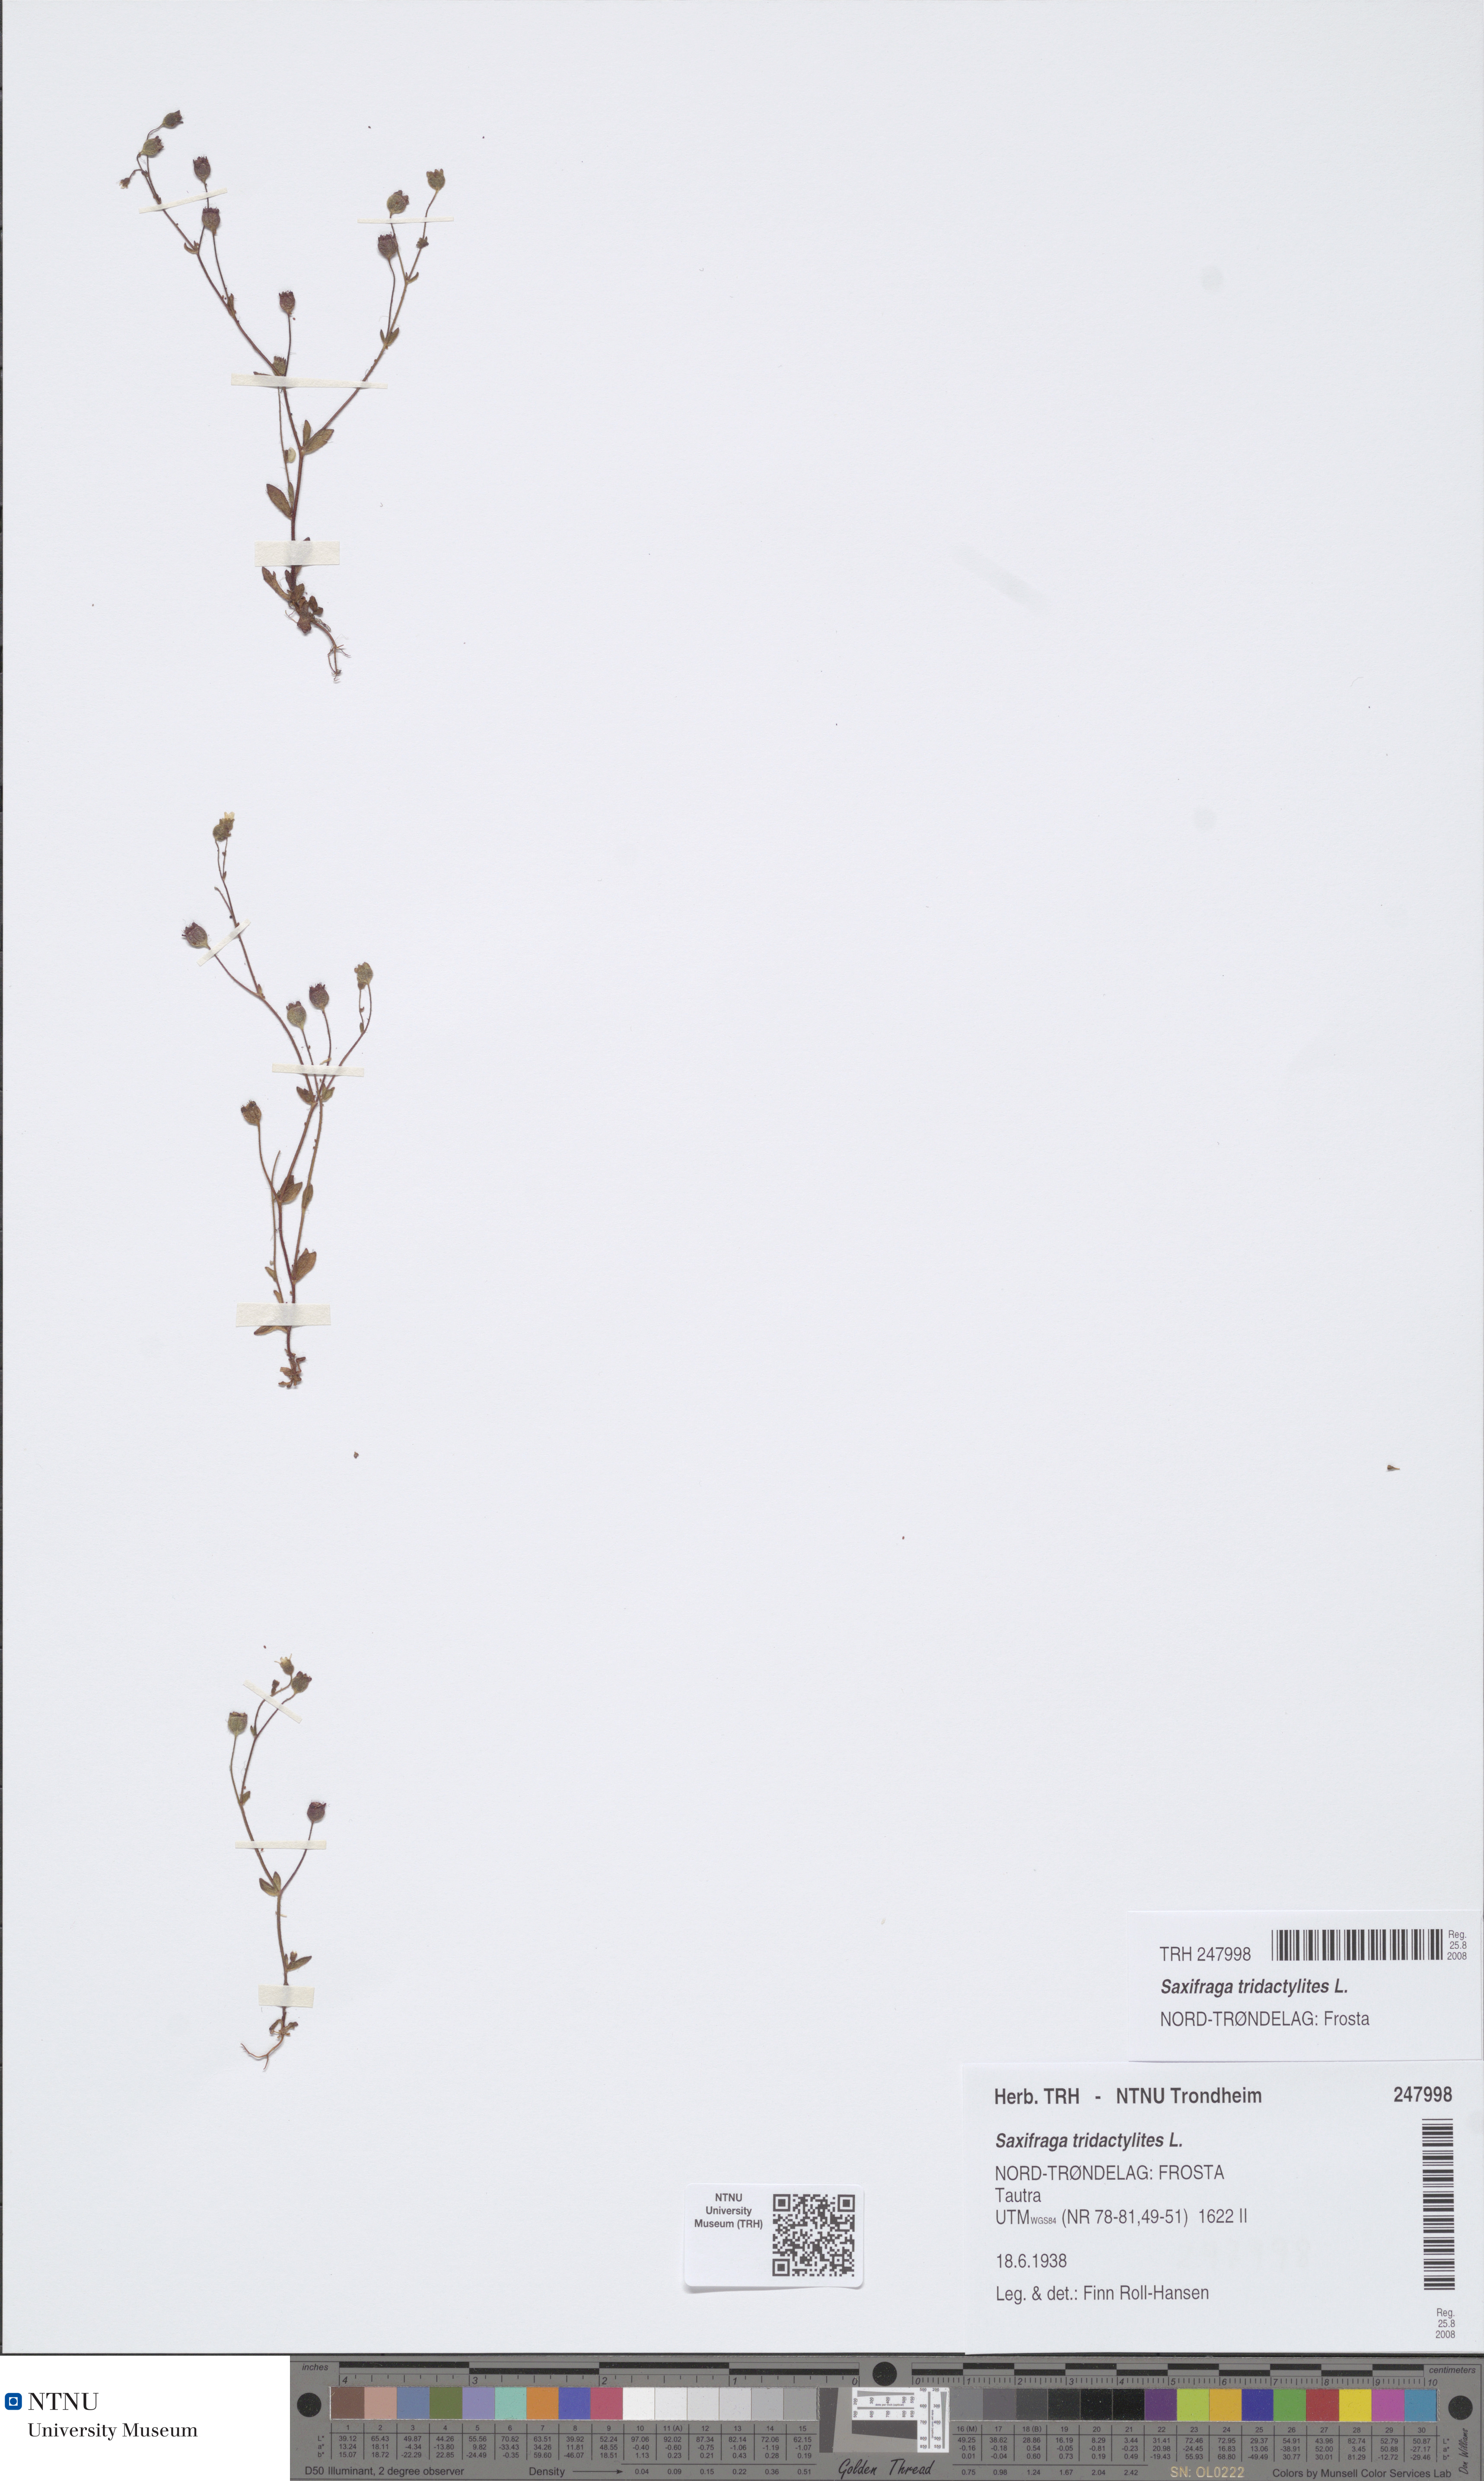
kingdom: Plantae
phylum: Tracheophyta
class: Magnoliopsida
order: Saxifragales
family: Saxifragaceae
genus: Saxifraga
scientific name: Saxifraga tridactylites
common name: Rue-leaved saxifrage
